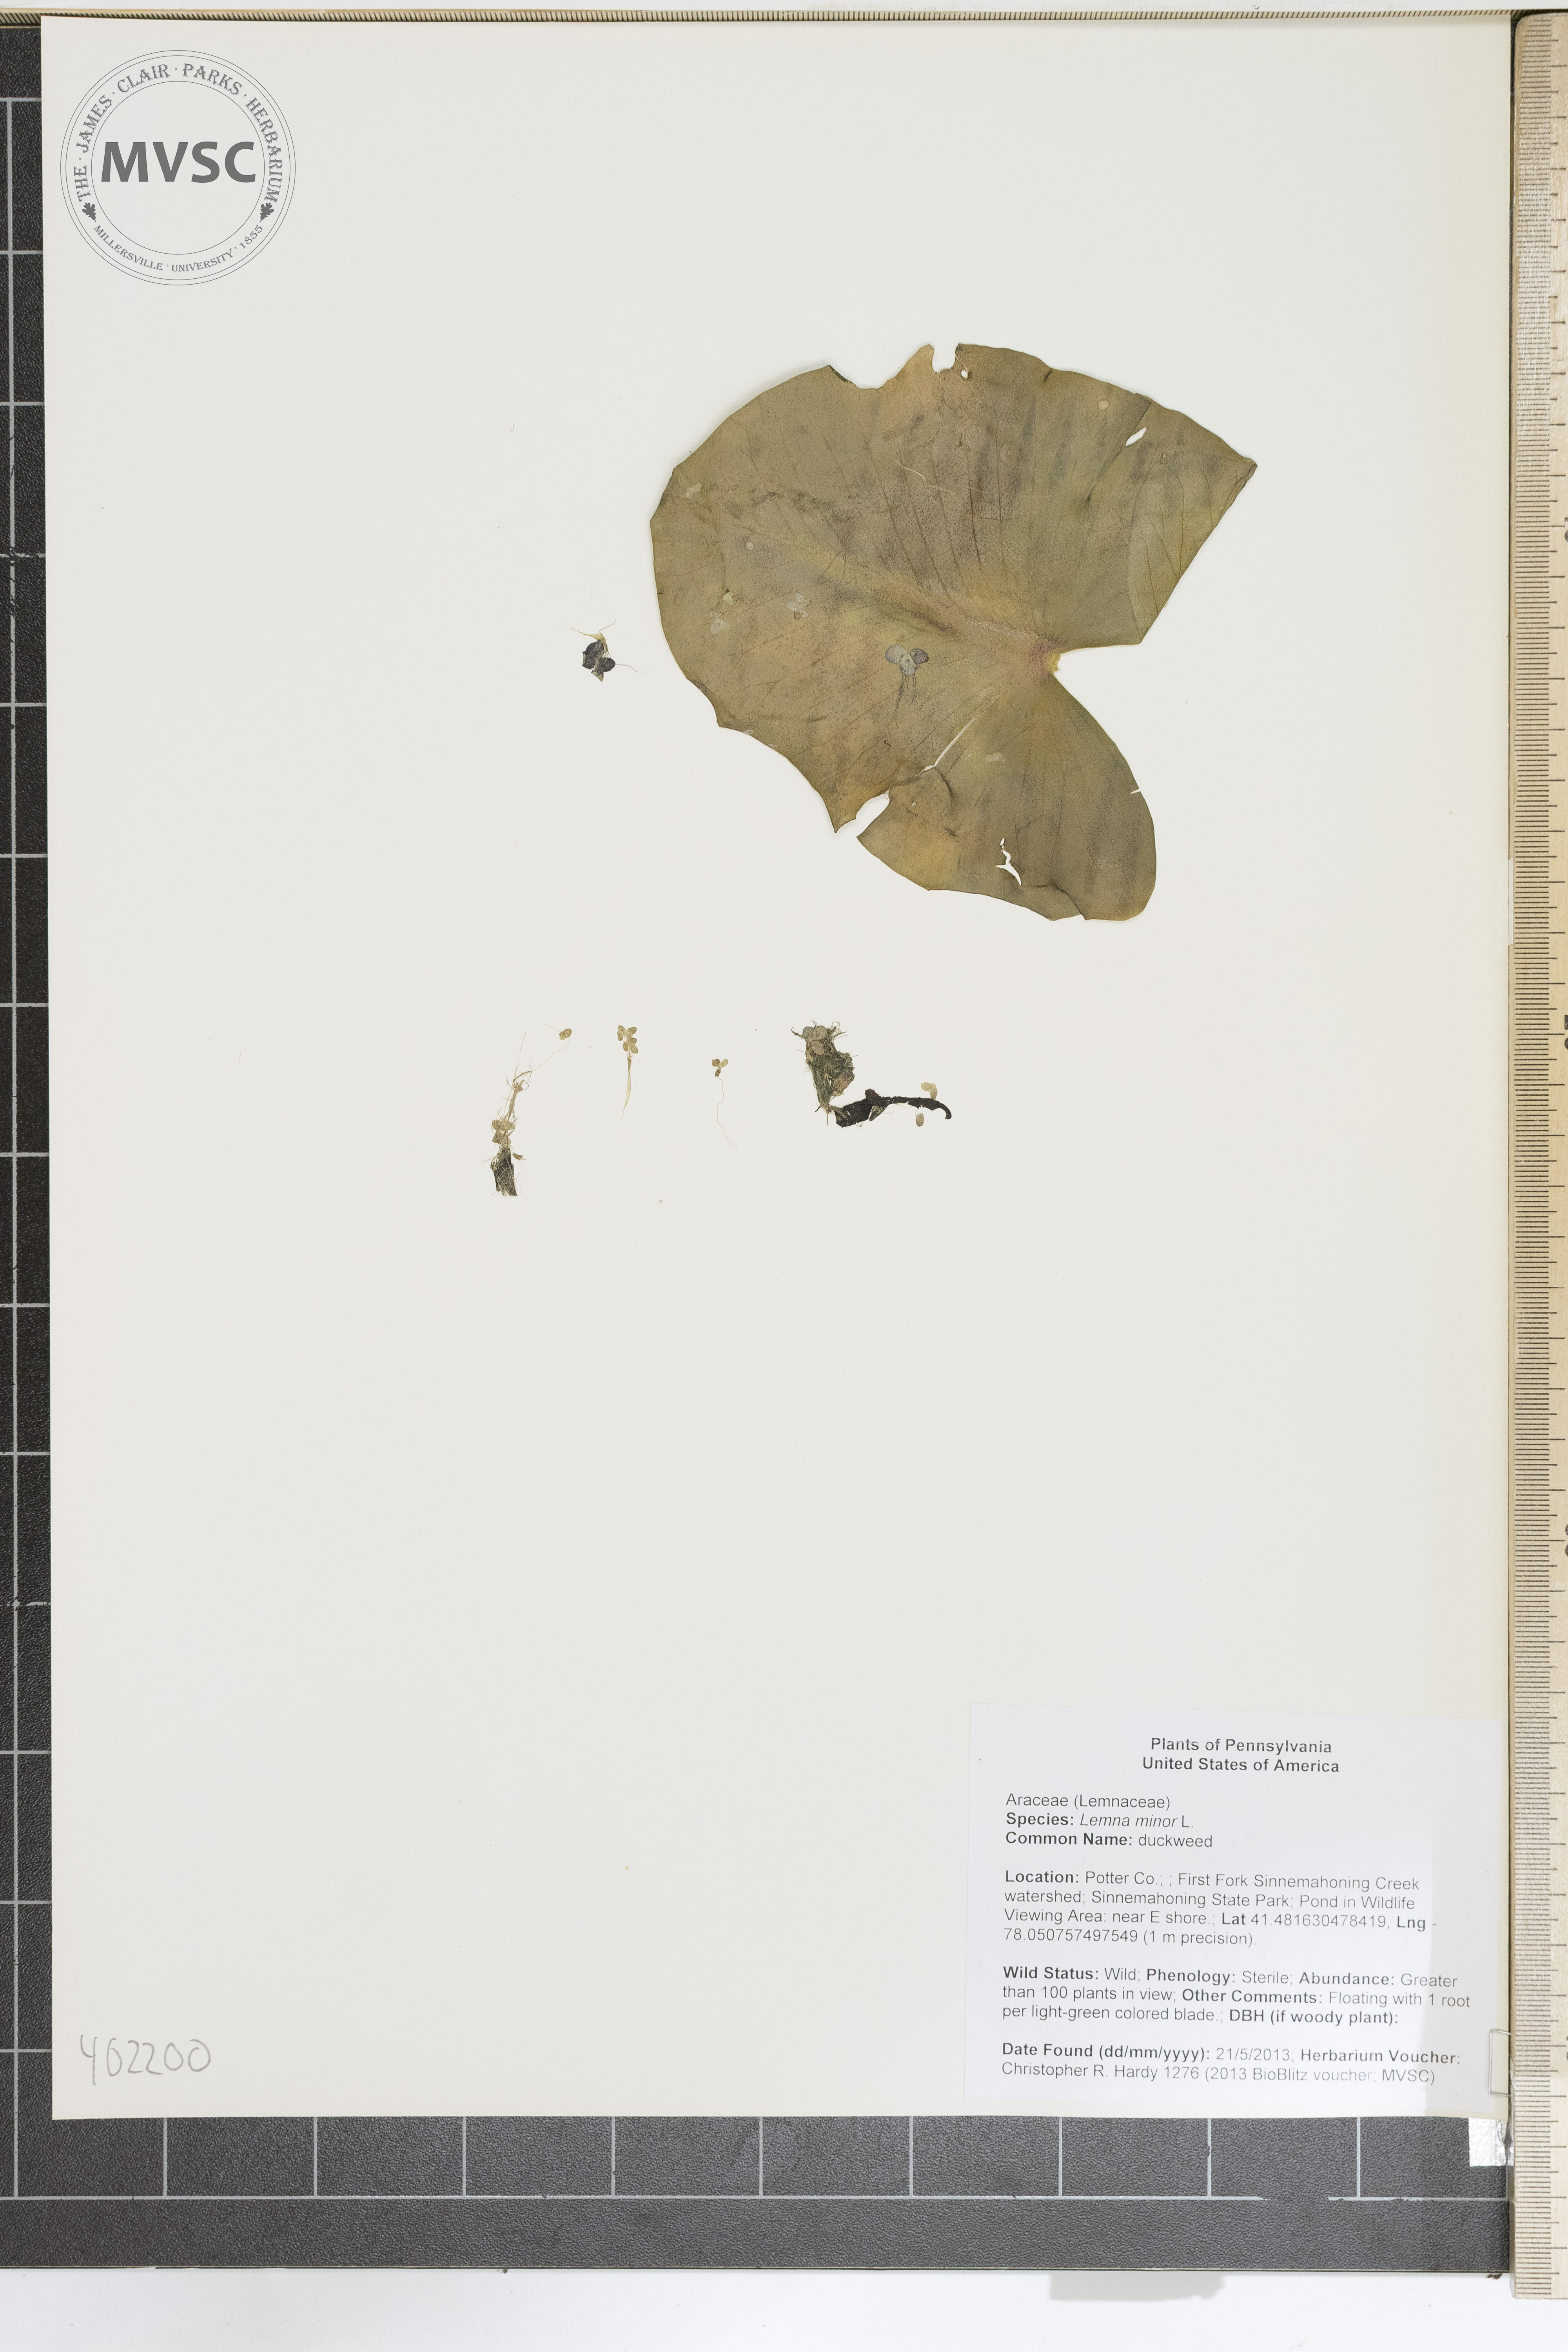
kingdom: Plantae
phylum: Tracheophyta
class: Liliopsida
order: Alismatales
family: Araceae
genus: Lemna
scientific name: Lemna minor
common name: duckweed
